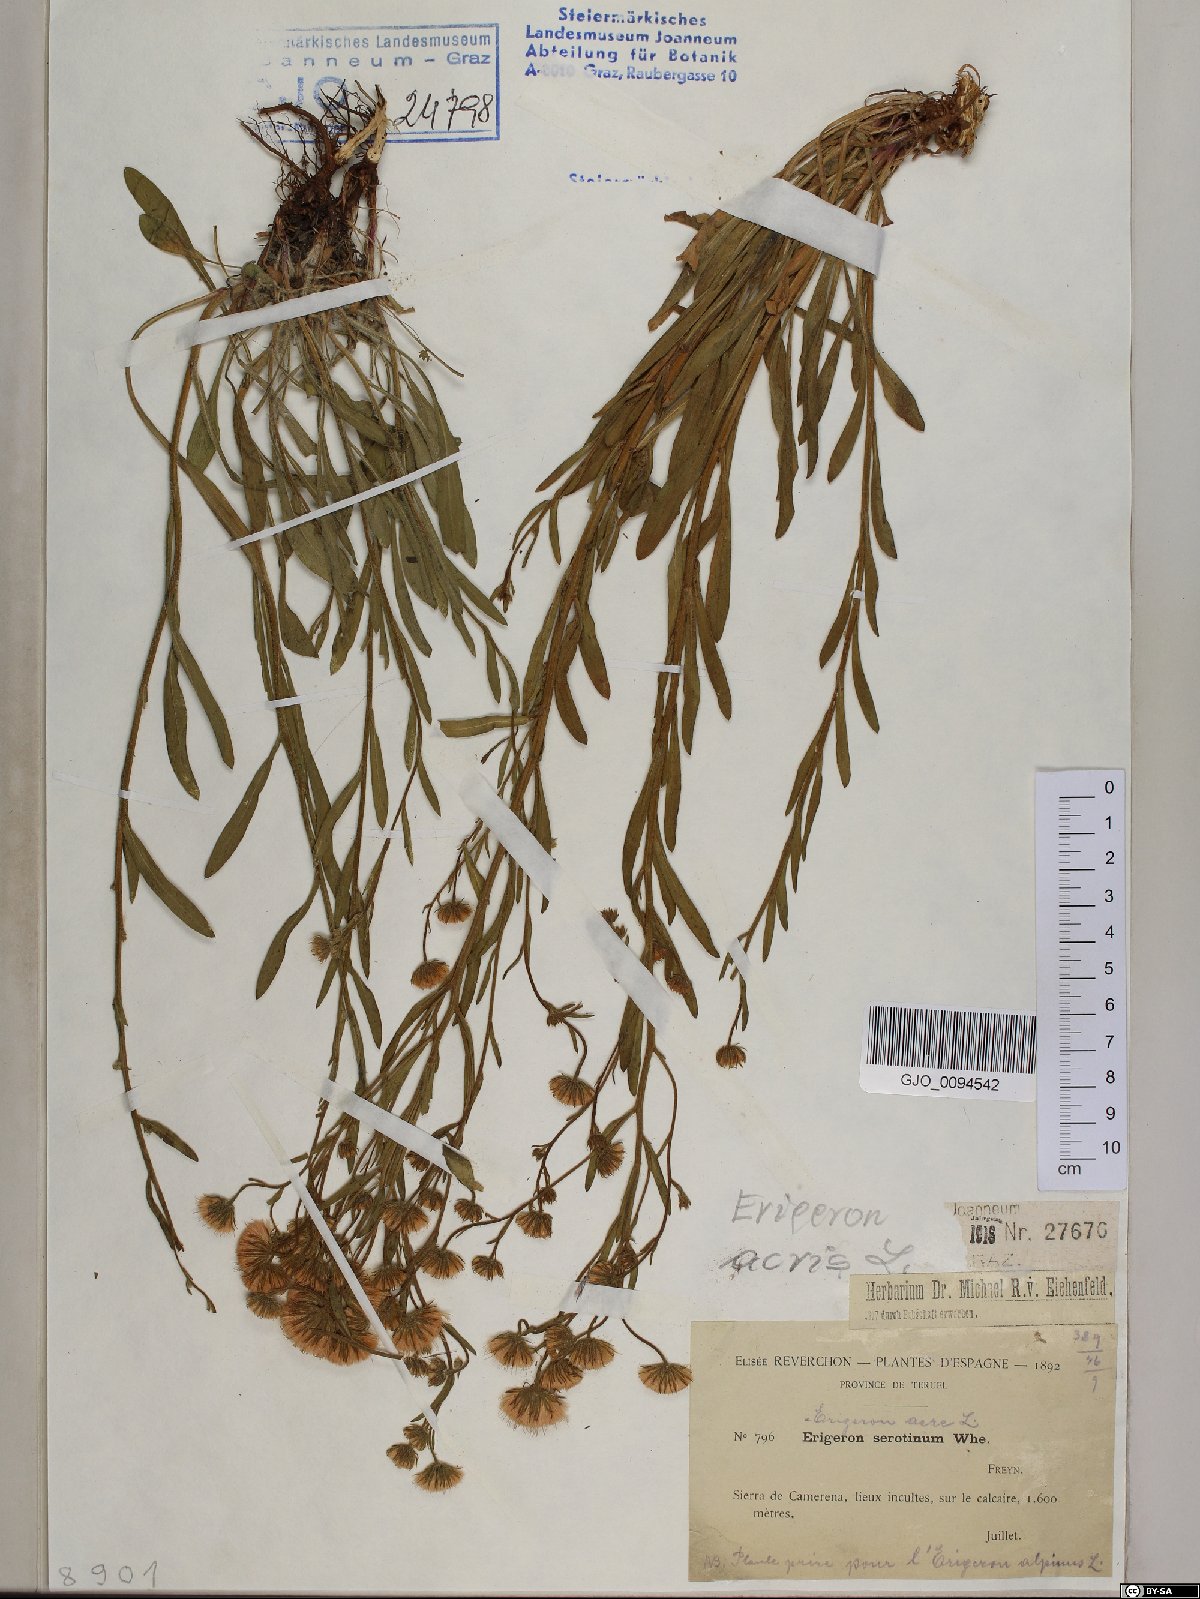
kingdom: Plantae
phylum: Tracheophyta
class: Magnoliopsida
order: Asterales
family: Asteraceae
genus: Erigeron
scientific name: Erigeron muralis
